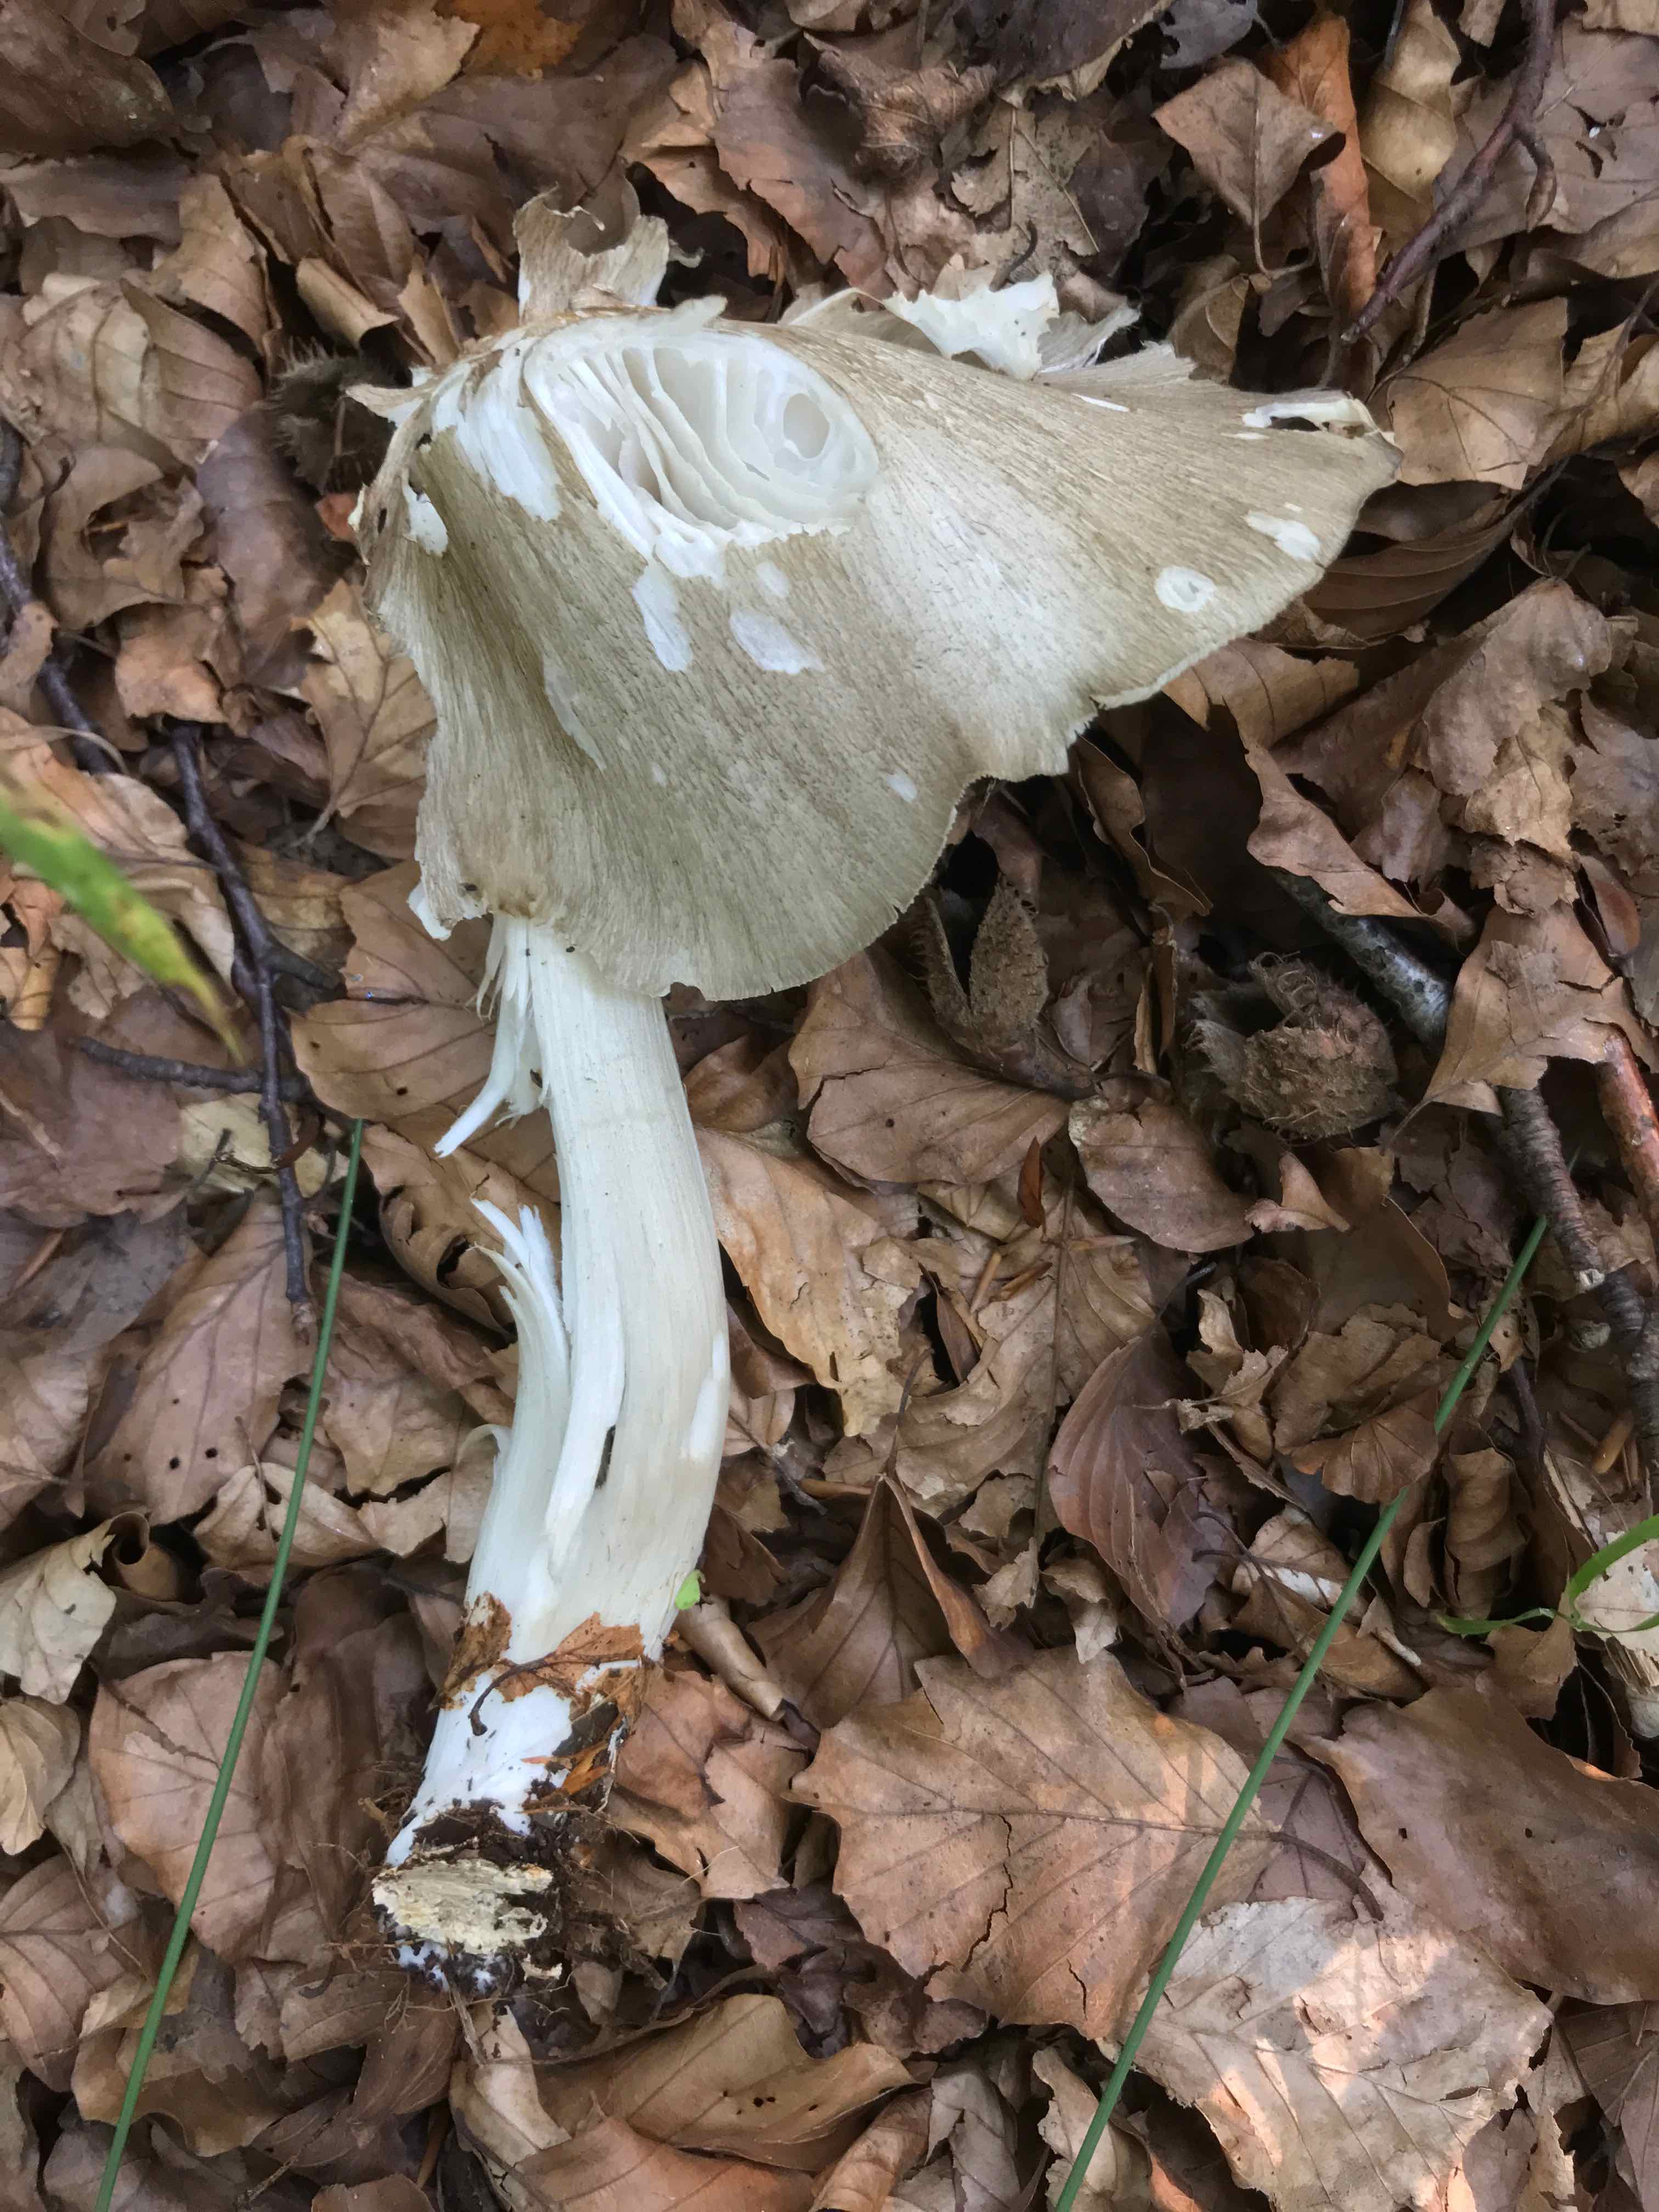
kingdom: Fungi
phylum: Basidiomycota
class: Agaricomycetes
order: Agaricales
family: Tricholomataceae
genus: Megacollybia
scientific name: Megacollybia platyphylla
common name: bredbladet væbnerhat
